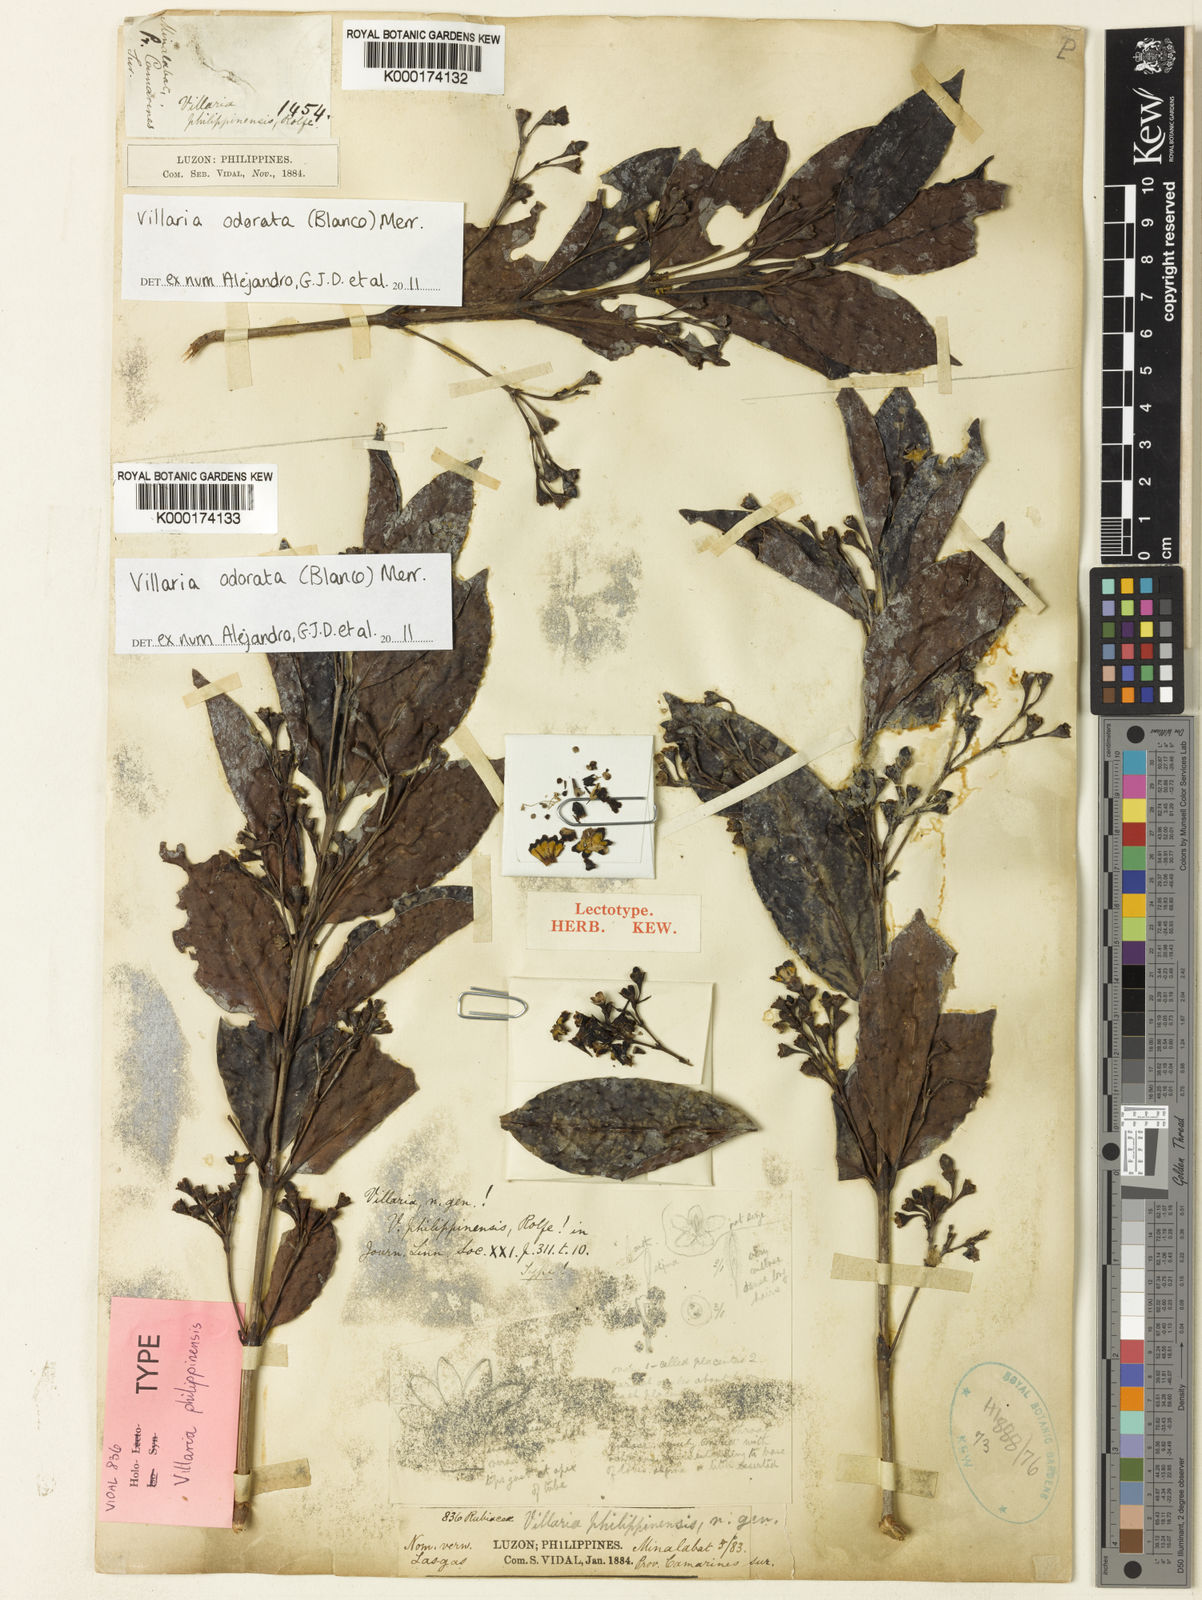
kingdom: Plantae
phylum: Tracheophyta
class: Magnoliopsida
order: Gentianales
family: Rubiaceae
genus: Villaria
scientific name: Villaria odorata
